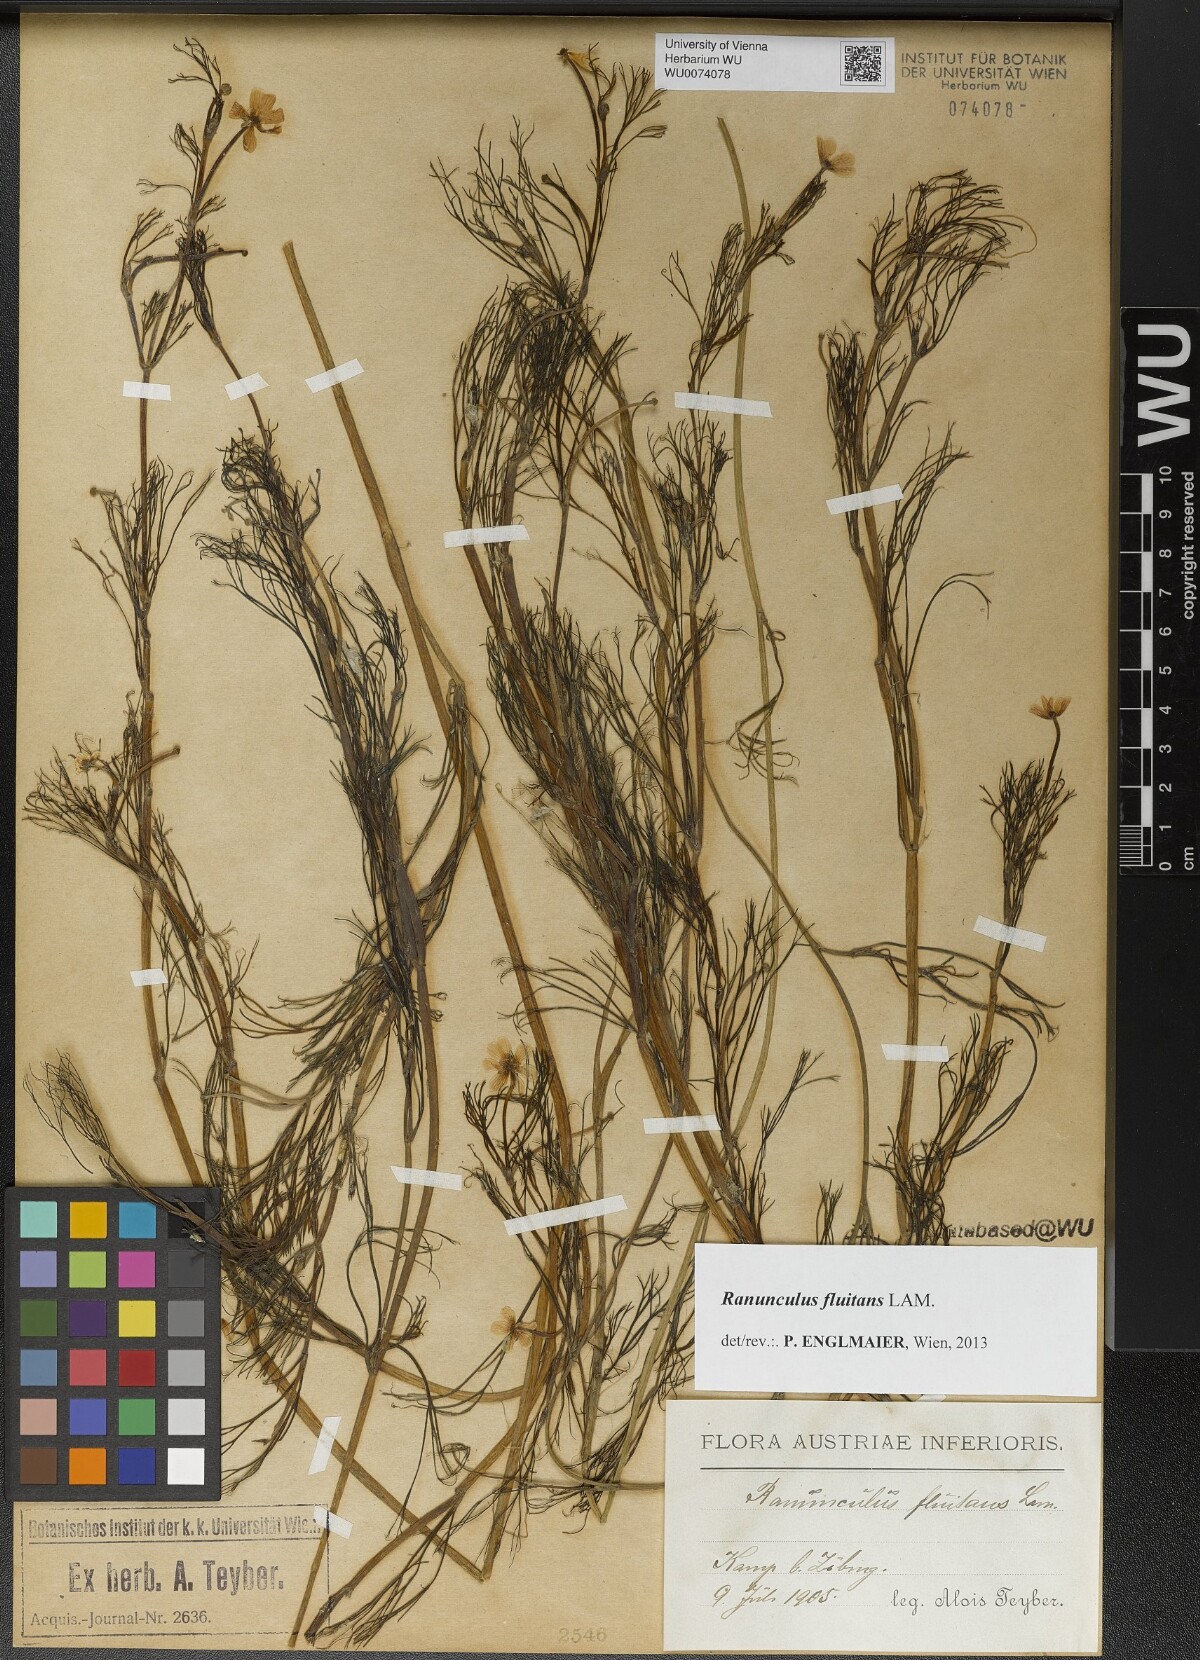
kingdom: Plantae
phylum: Tracheophyta
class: Magnoliopsida
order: Ranunculales
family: Ranunculaceae
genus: Ranunculus
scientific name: Ranunculus fluitans
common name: River water-crowfoot
